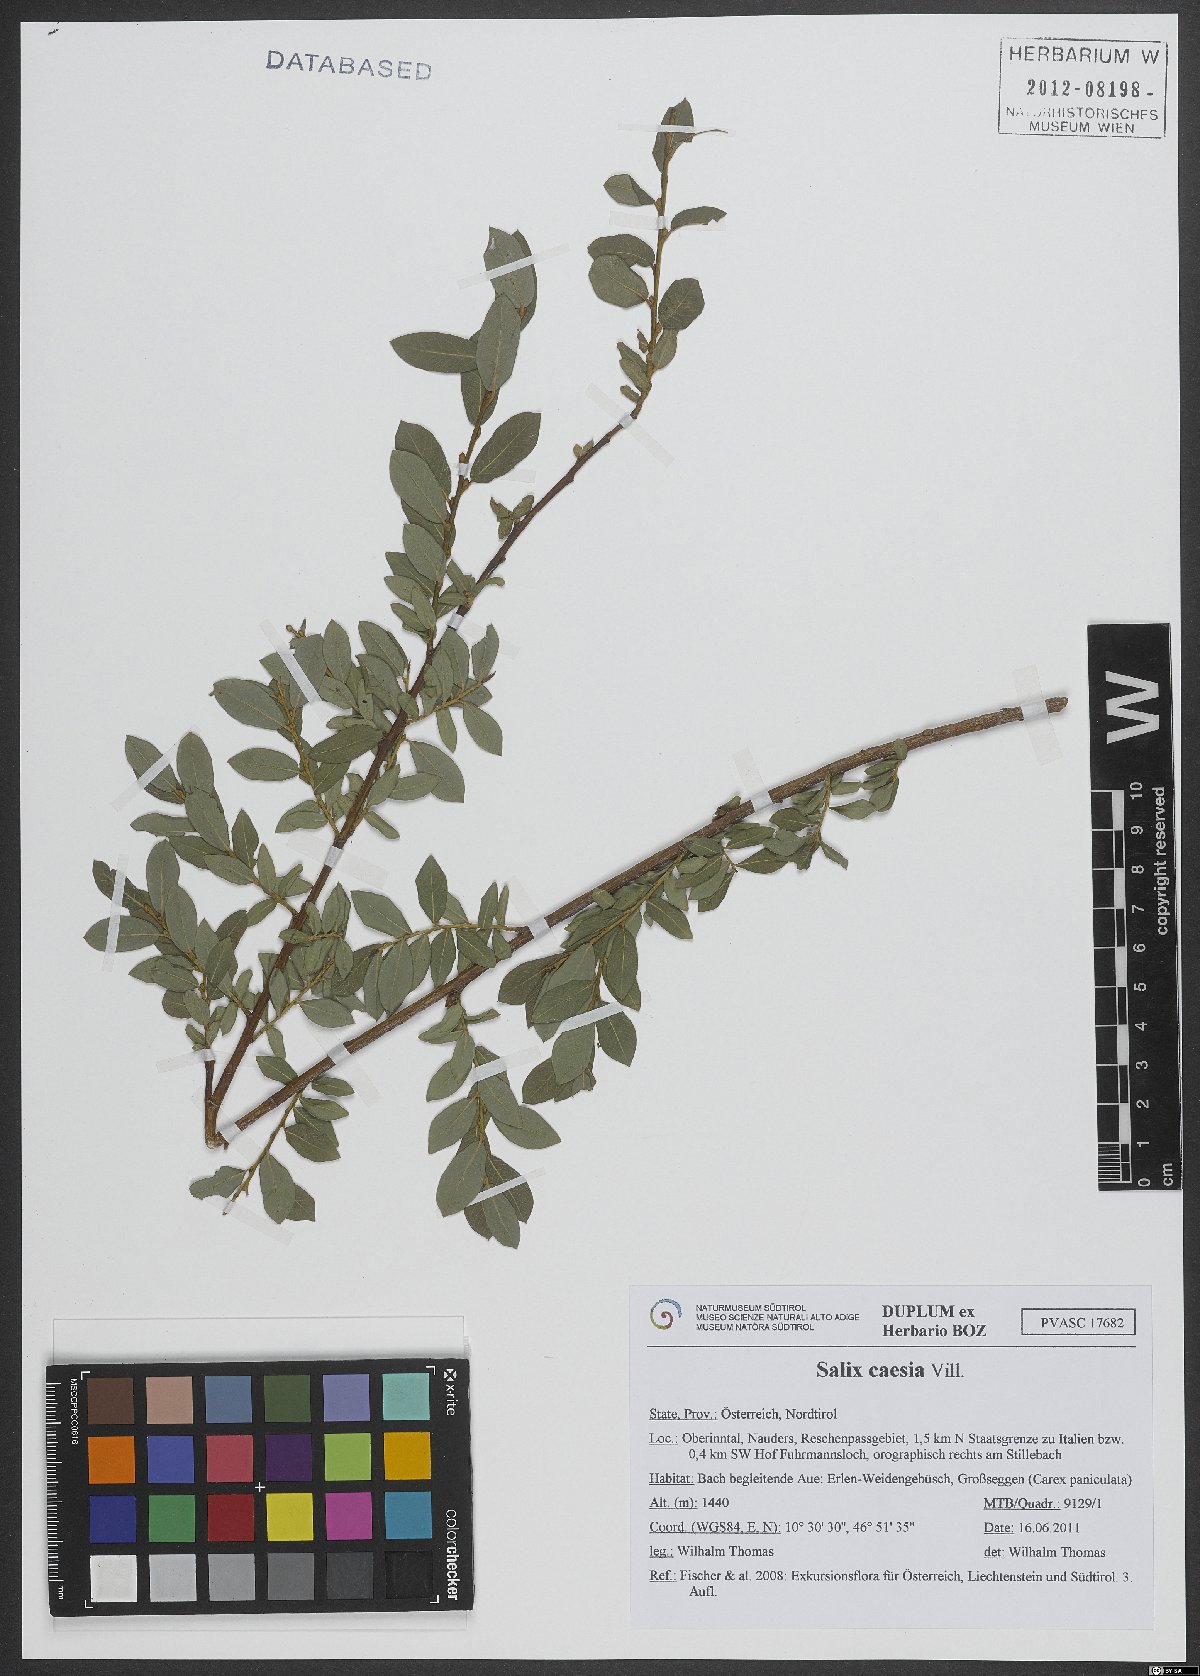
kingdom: Plantae
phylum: Tracheophyta
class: Magnoliopsida
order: Malpighiales
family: Salicaceae
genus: Salix
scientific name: Salix caesia
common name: Blue willow
